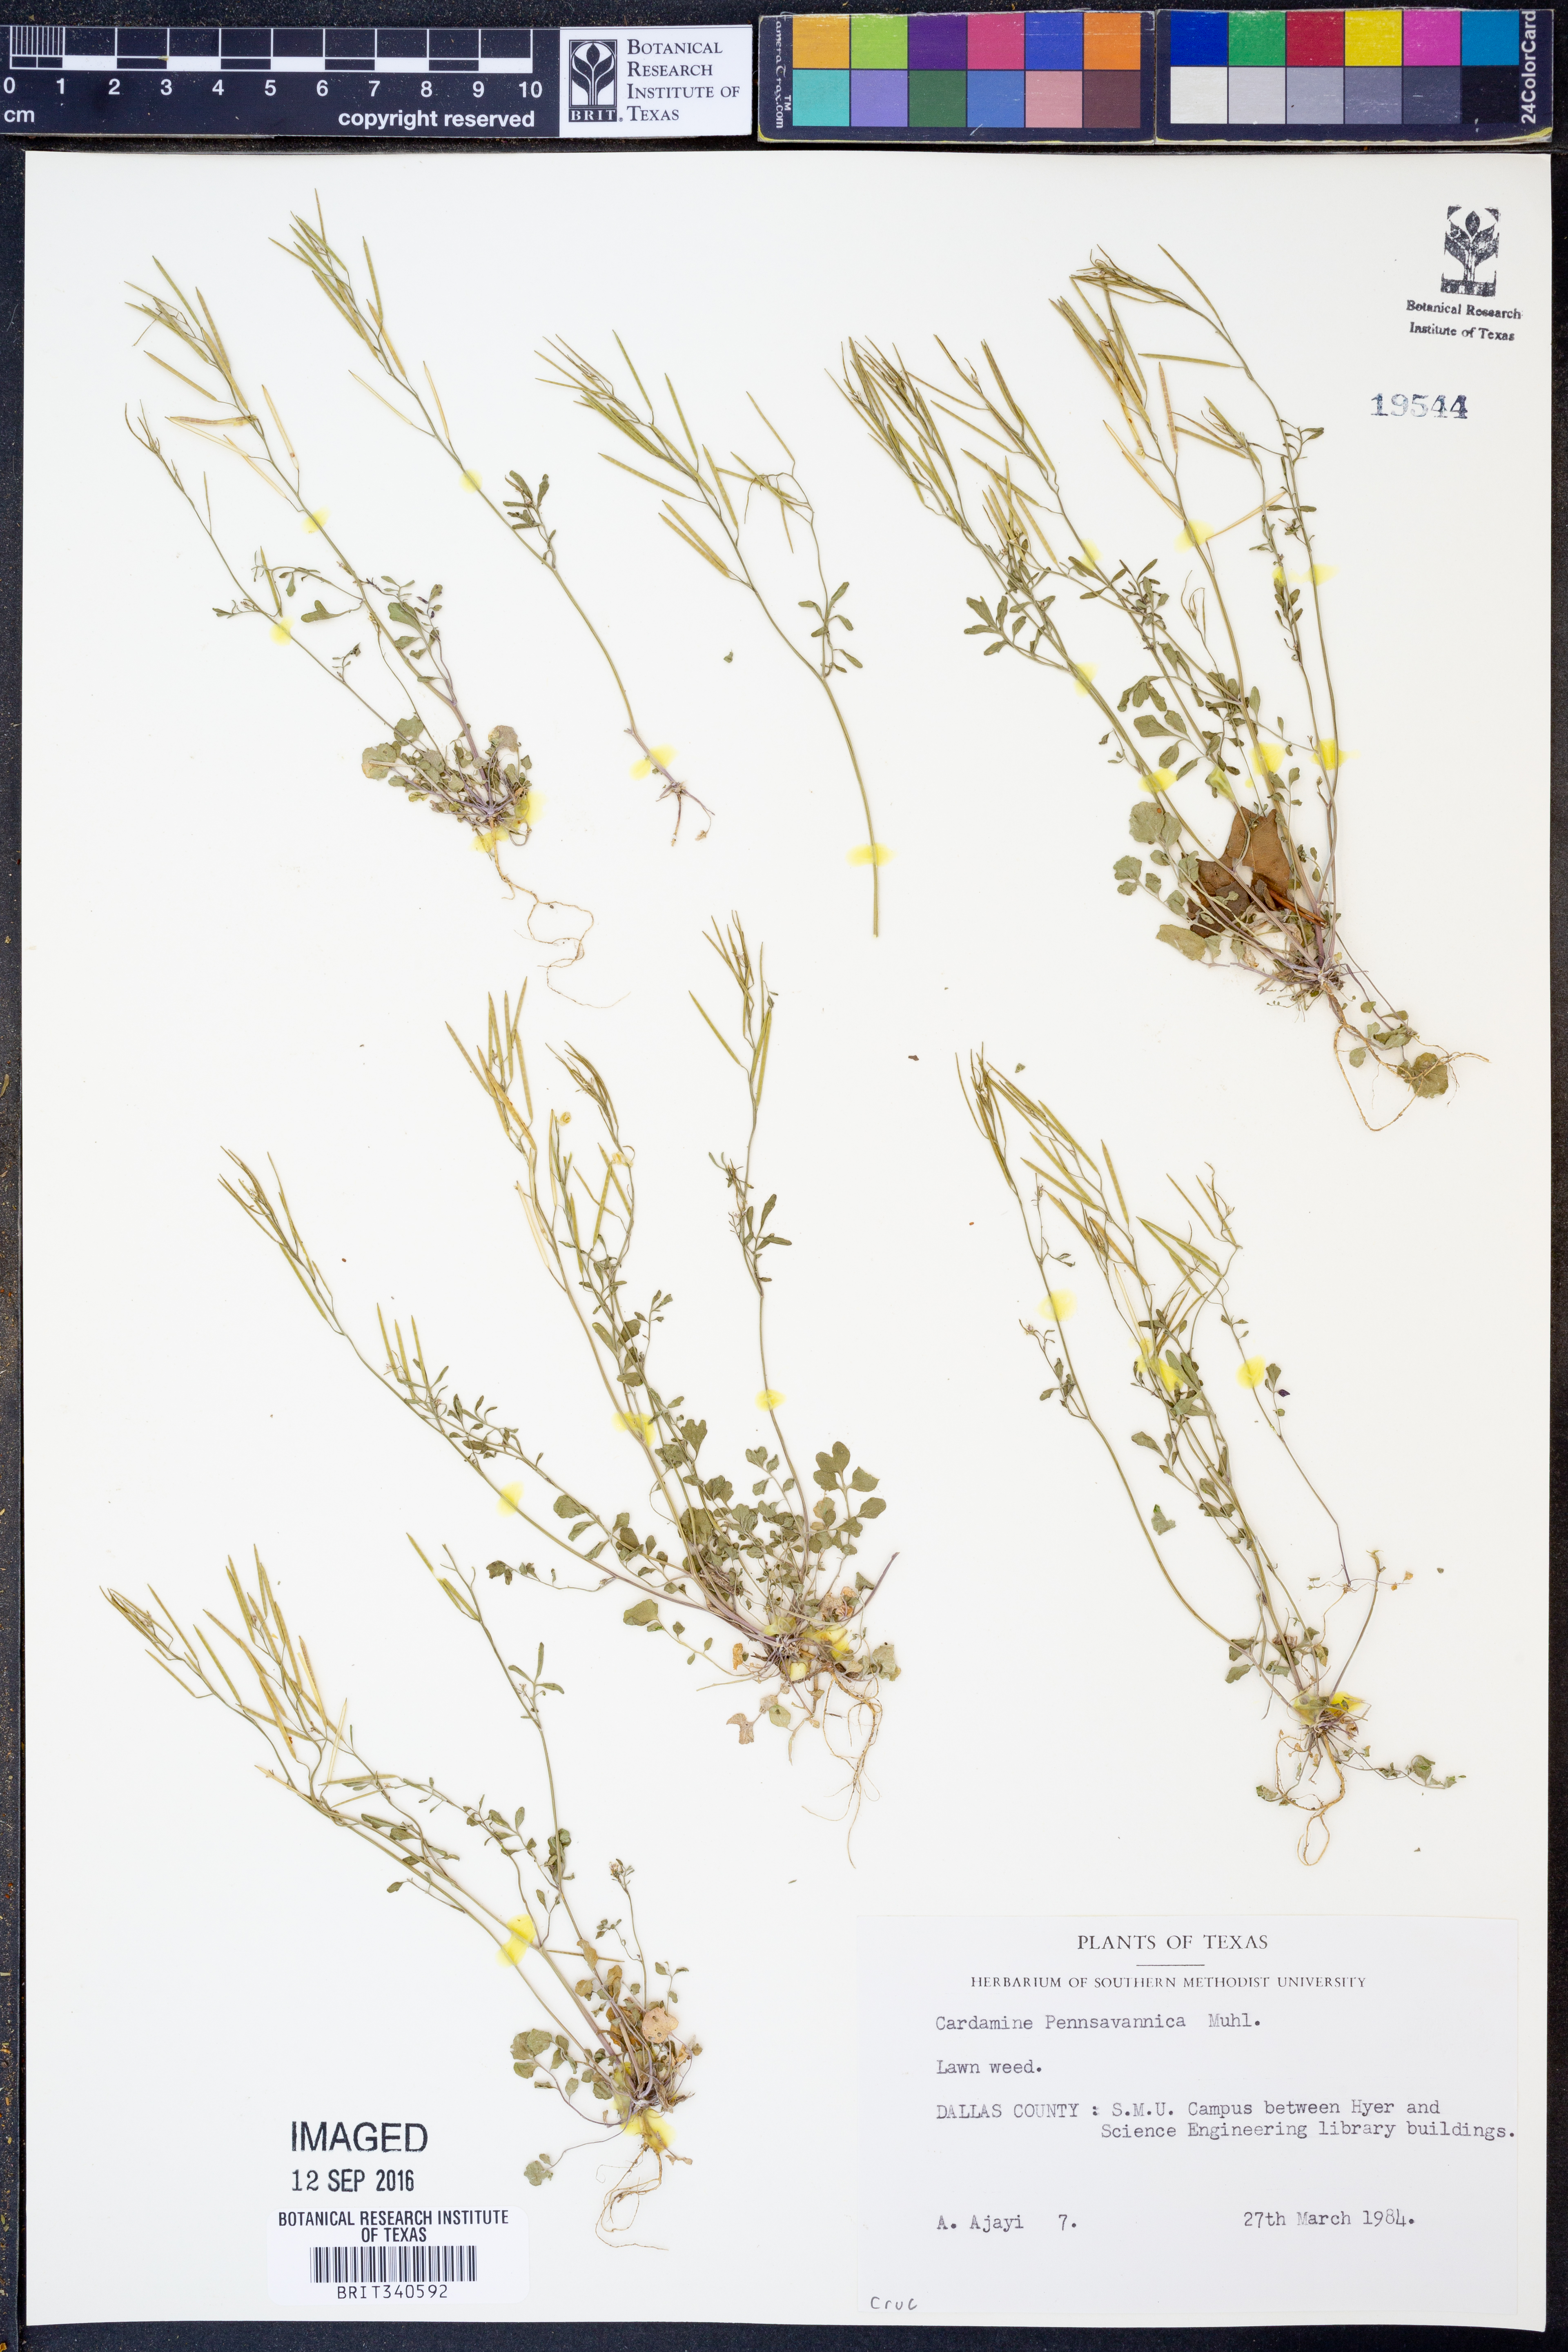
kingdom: Plantae
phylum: Tracheophyta
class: Magnoliopsida
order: Brassicales
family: Brassicaceae
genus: Cardamine
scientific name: Cardamine pensylvanica
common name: Pennsylvania bittercress
